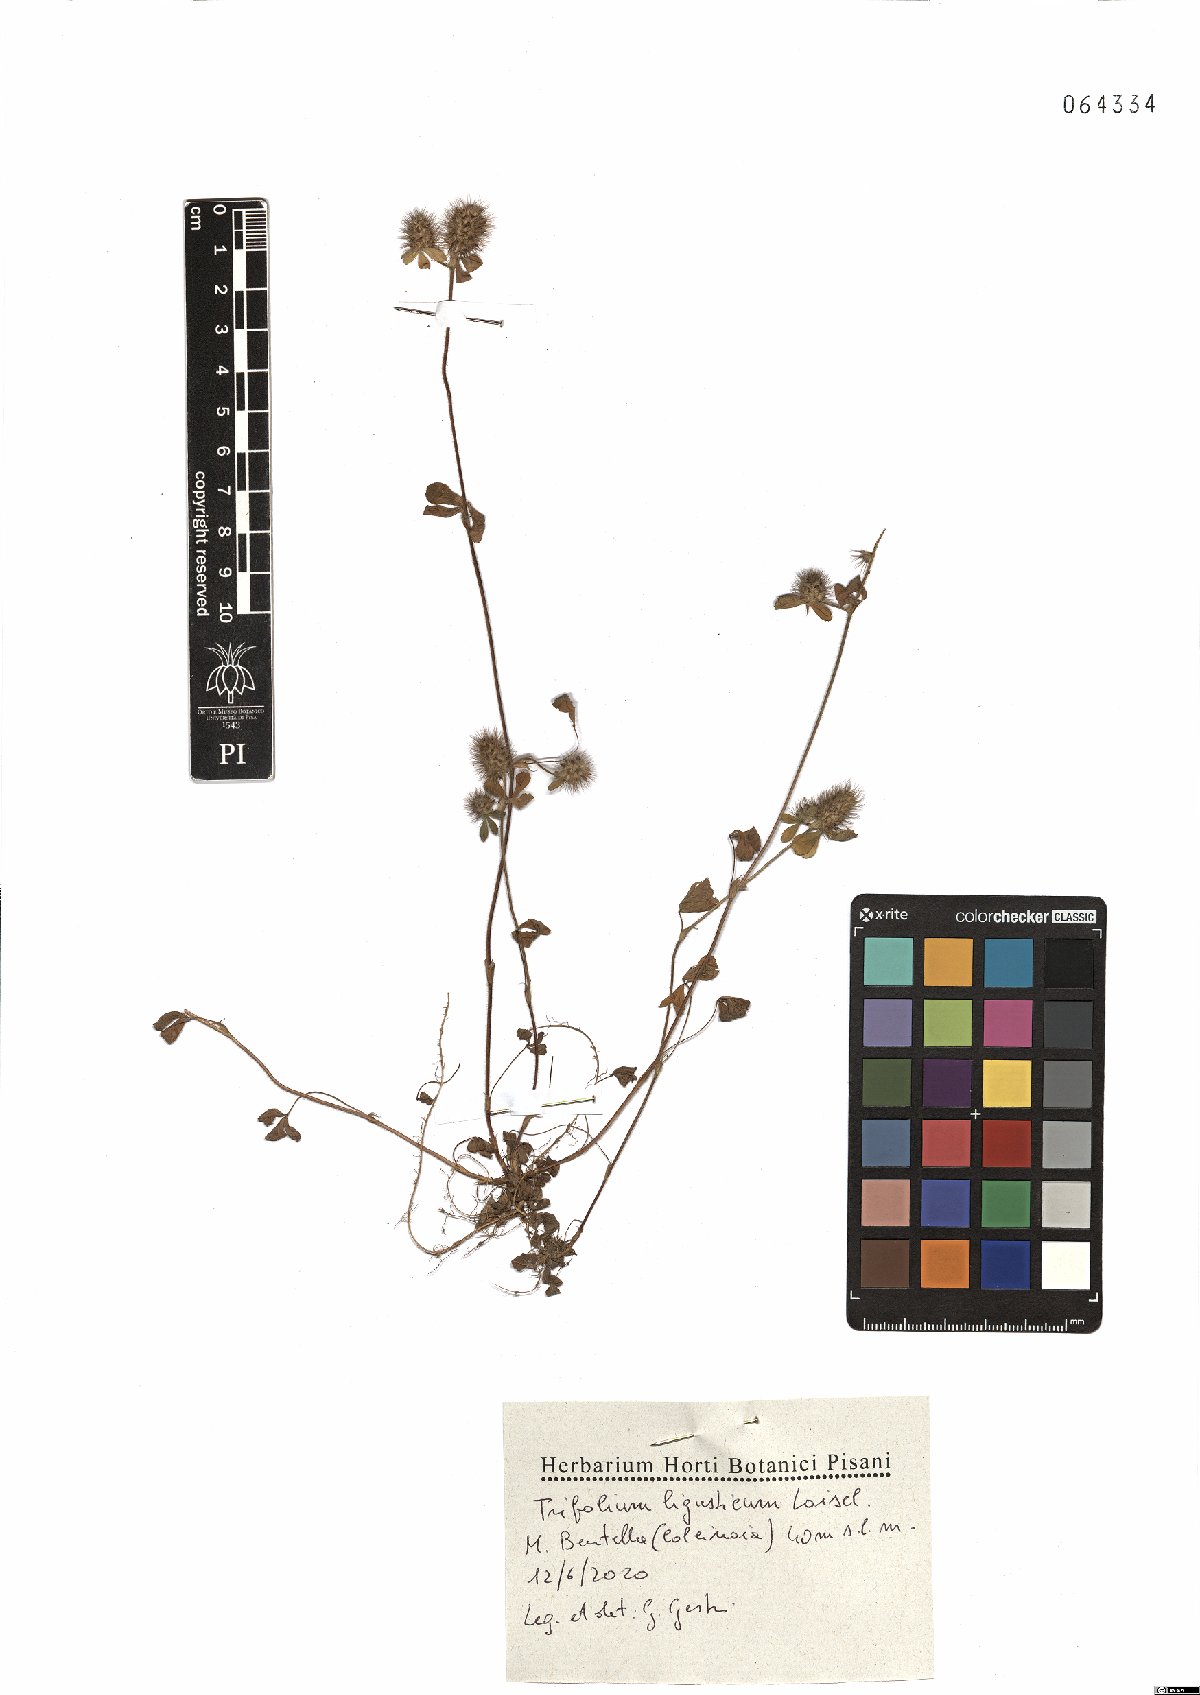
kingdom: Plantae
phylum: Tracheophyta
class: Magnoliopsida
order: Fabales
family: Fabaceae
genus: Trifolium
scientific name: Trifolium ligusticum
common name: Ligurian clover
